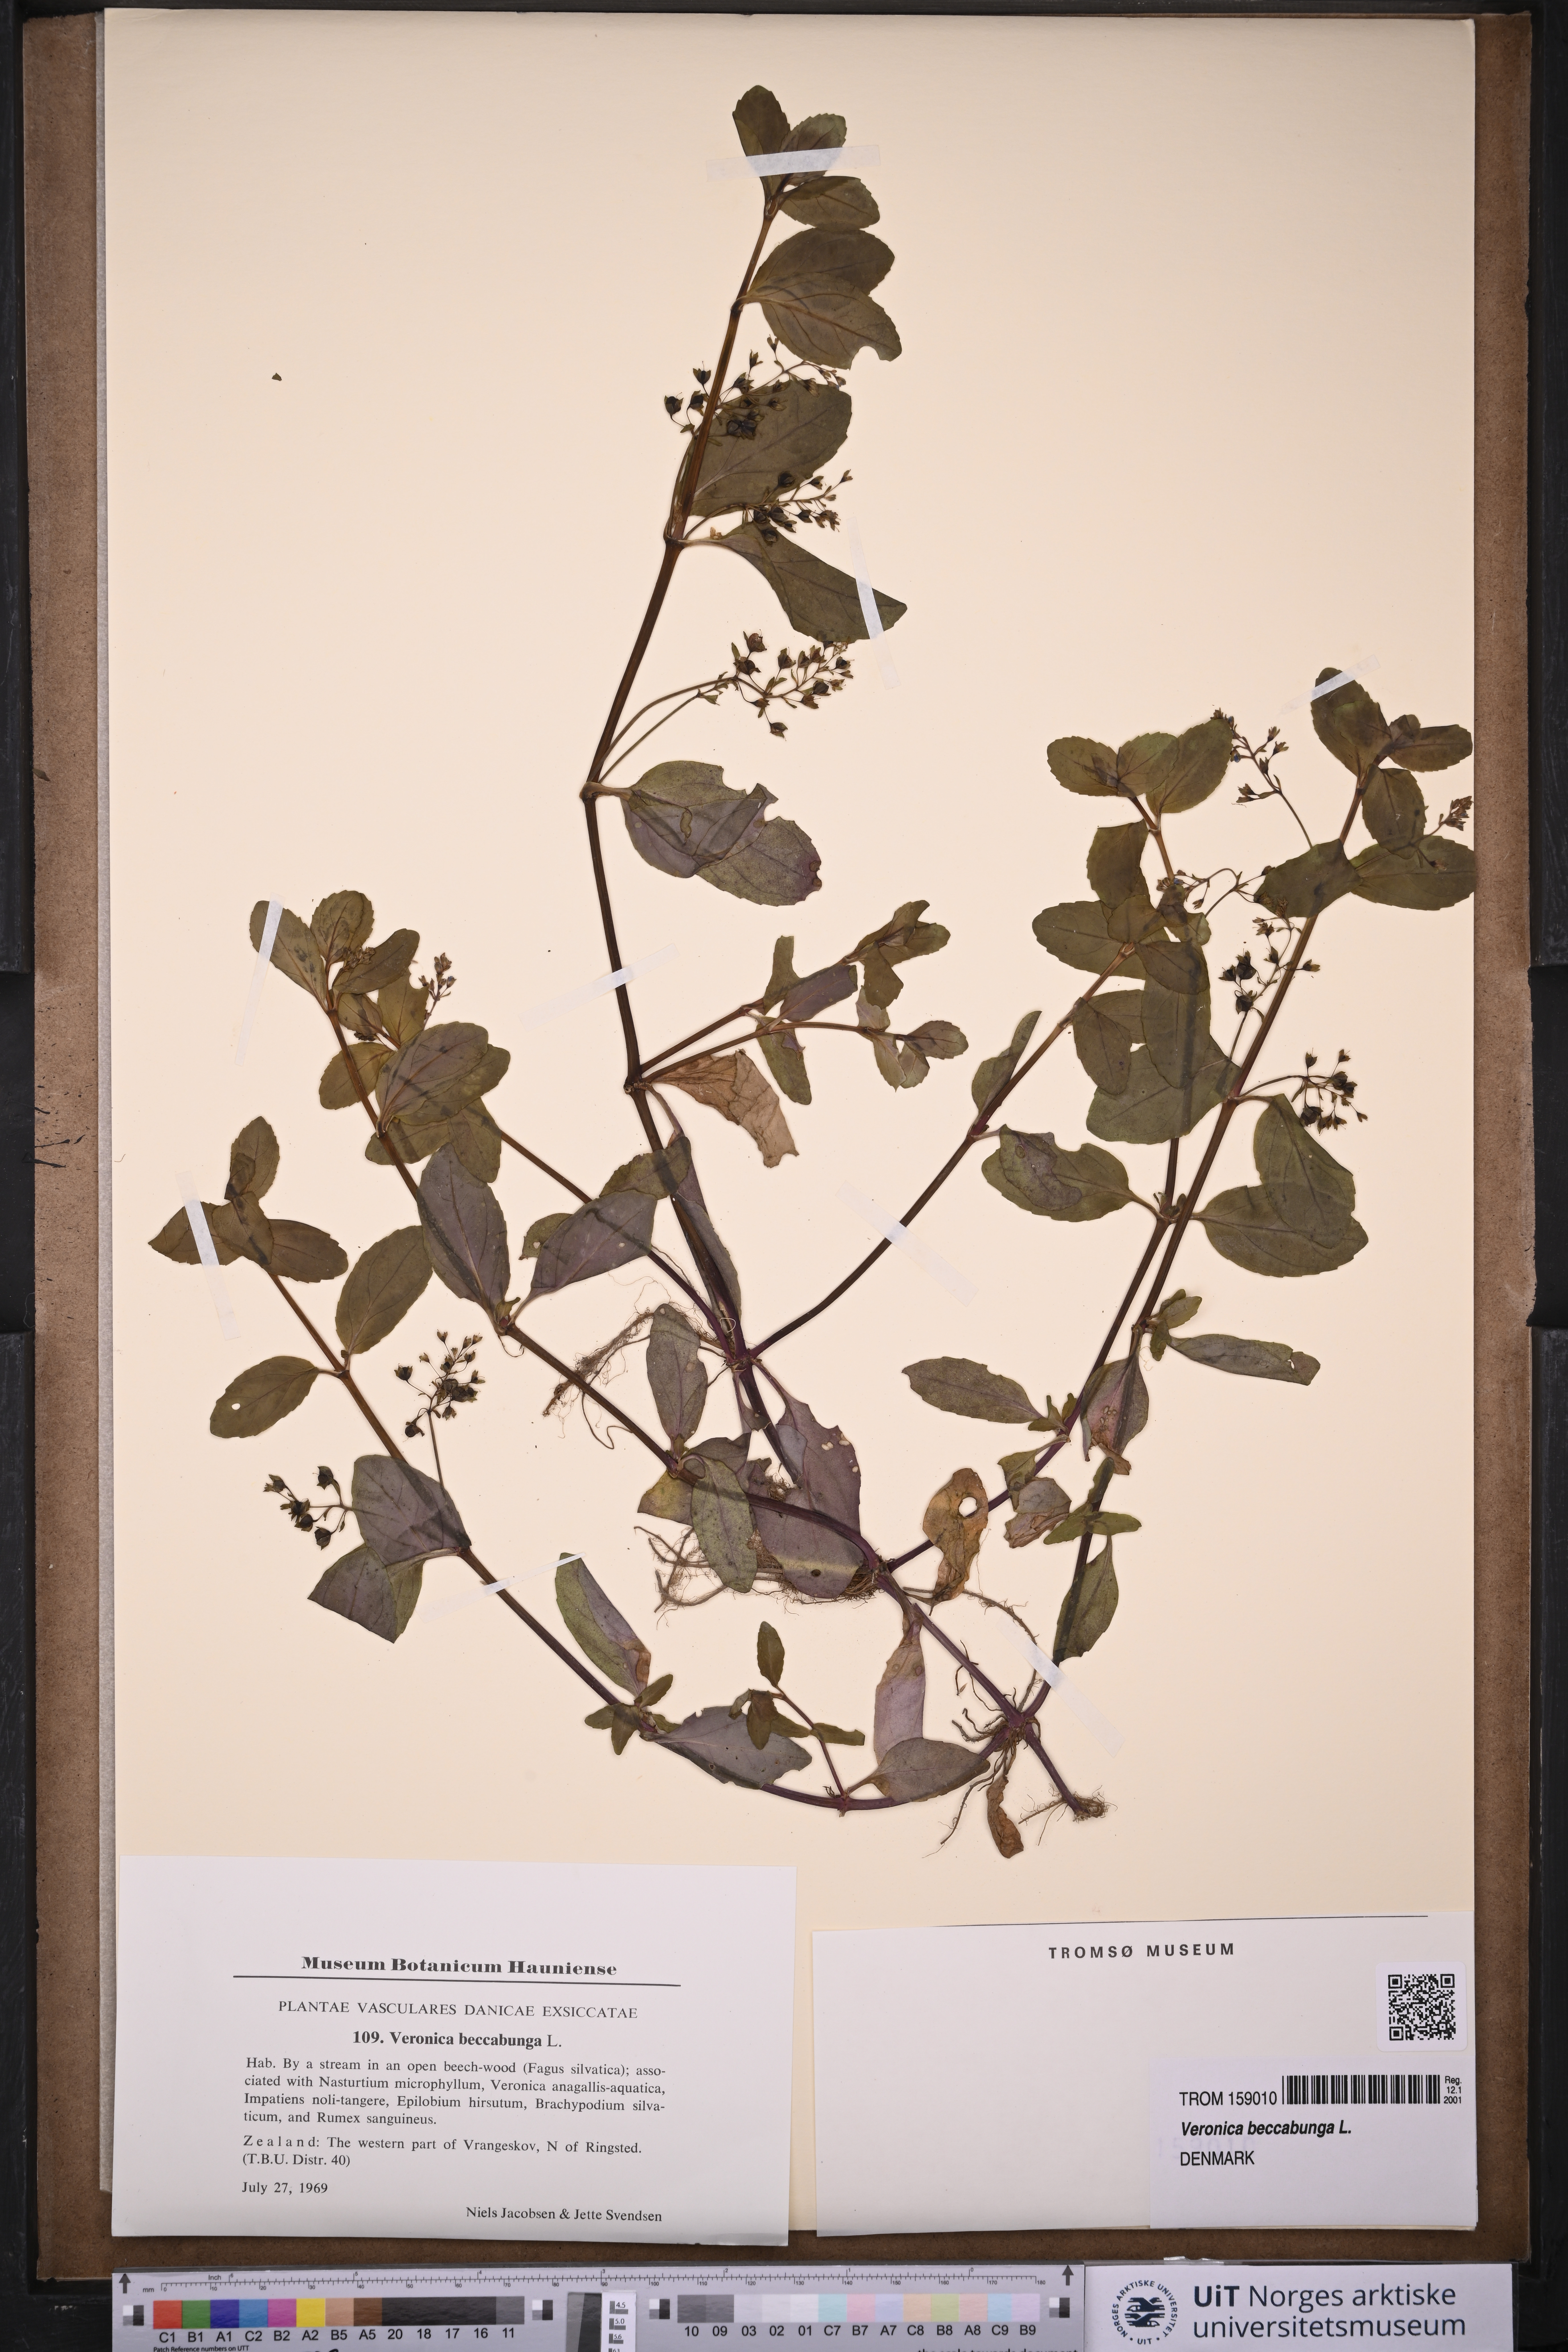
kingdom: Plantae
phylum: Tracheophyta
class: Magnoliopsida
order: Lamiales
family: Plantaginaceae
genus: Veronica
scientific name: Veronica beccabunga
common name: Brooklime
